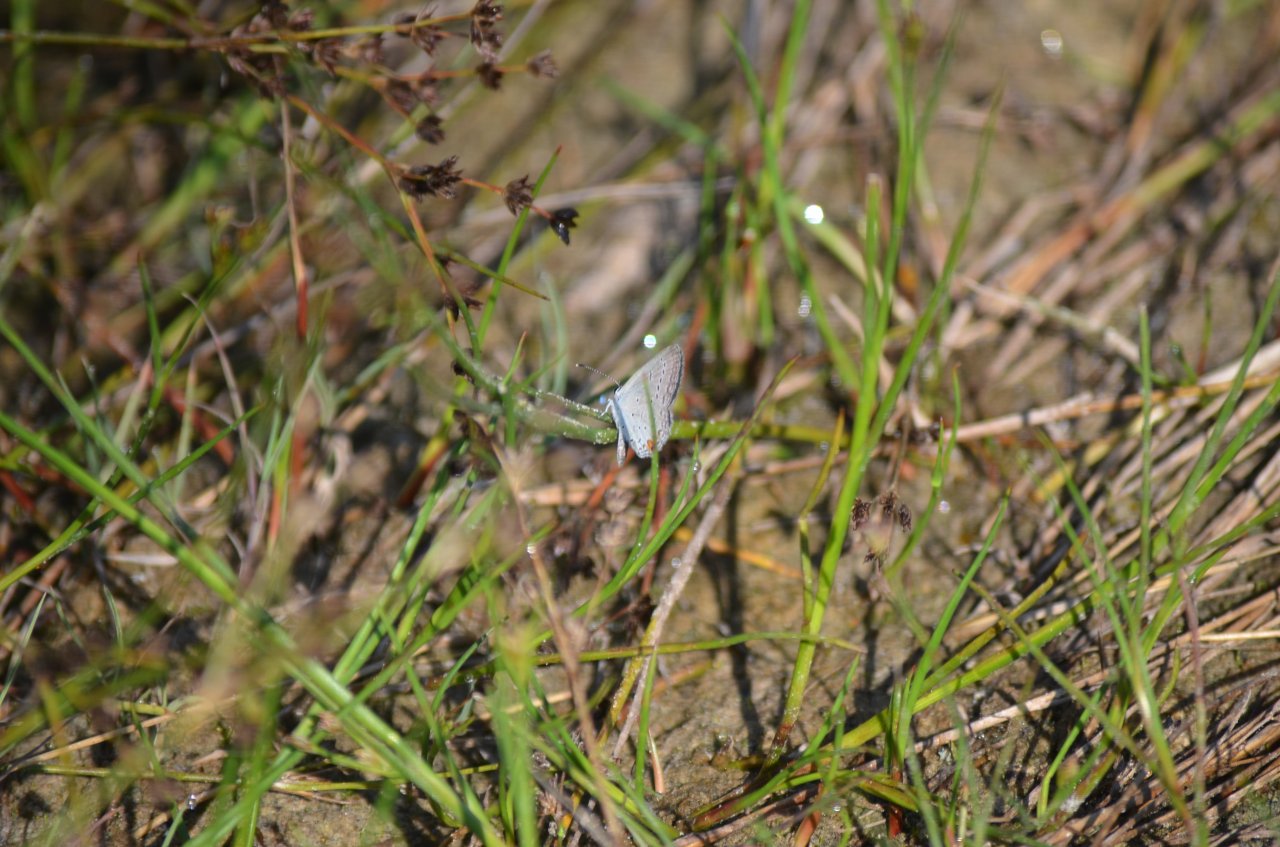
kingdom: Animalia
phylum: Arthropoda
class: Insecta
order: Lepidoptera
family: Lycaenidae
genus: Elkalyce
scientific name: Elkalyce comyntas
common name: Eastern Tailed-Blue
